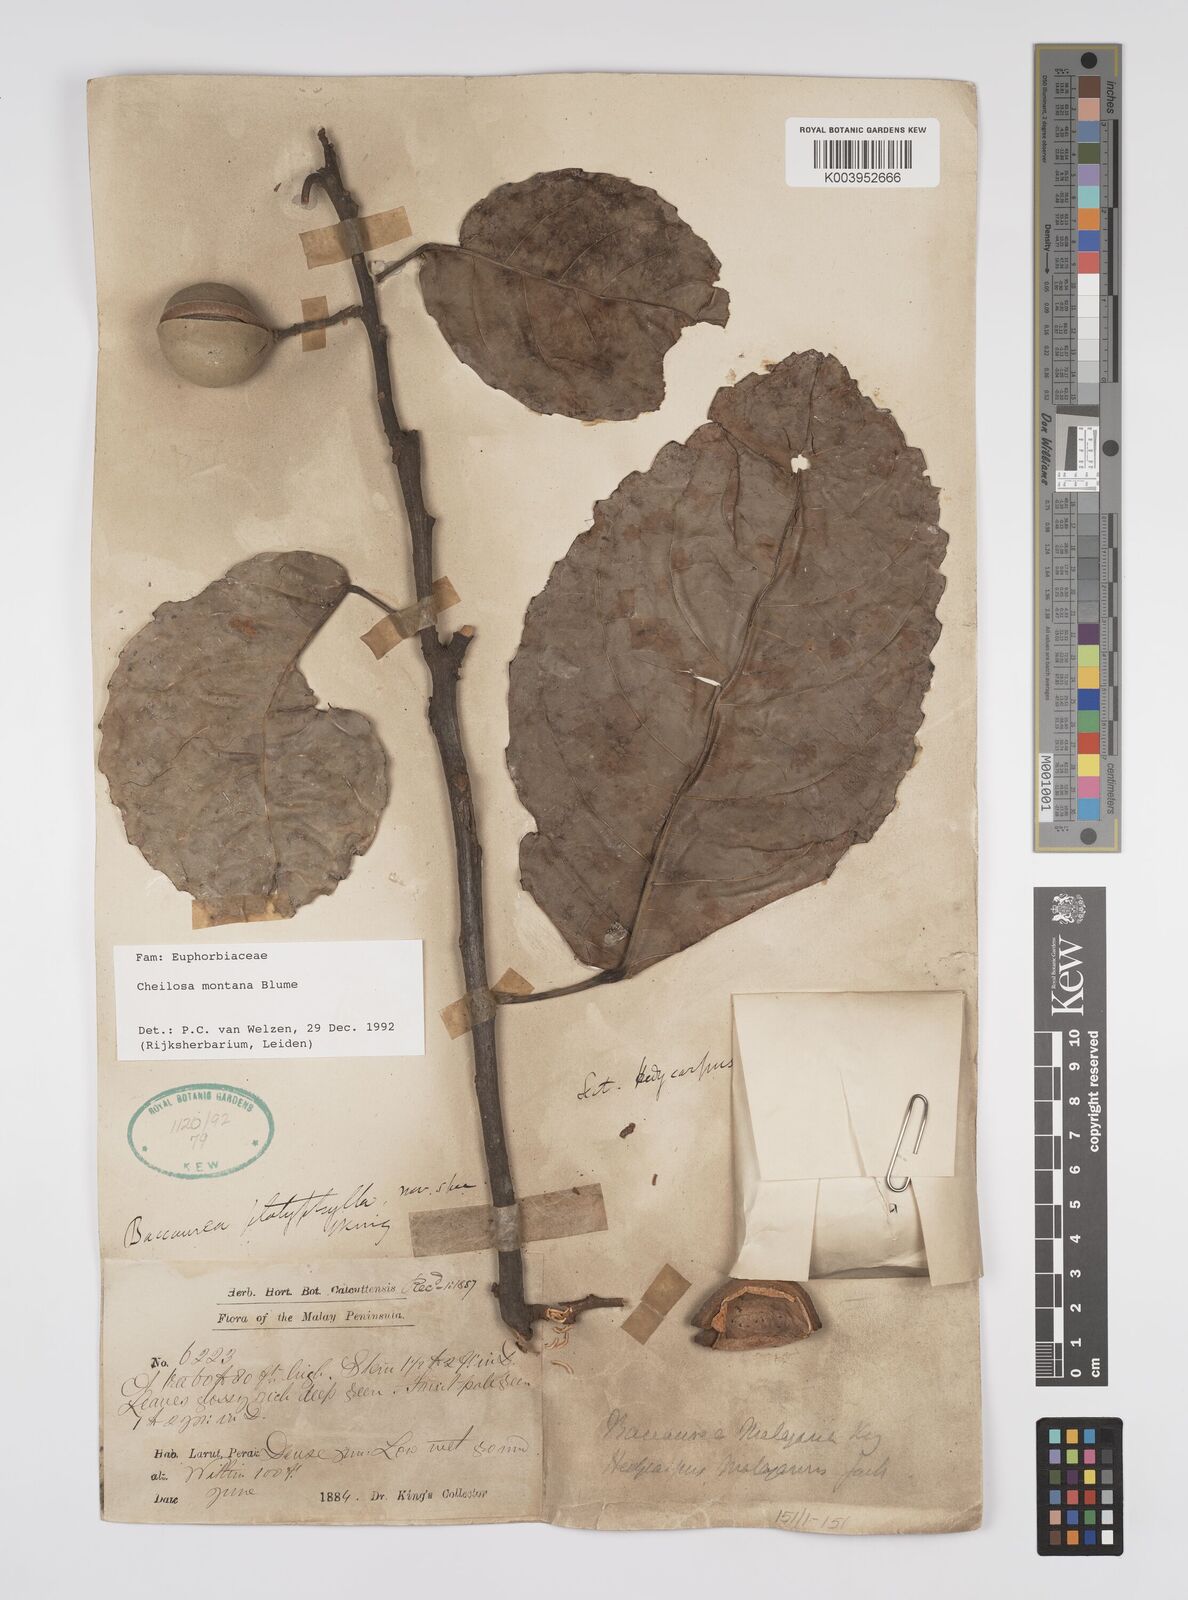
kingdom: Plantae
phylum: Tracheophyta
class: Magnoliopsida
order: Malpighiales
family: Euphorbiaceae
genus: Cheilosa
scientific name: Cheilosa montana
